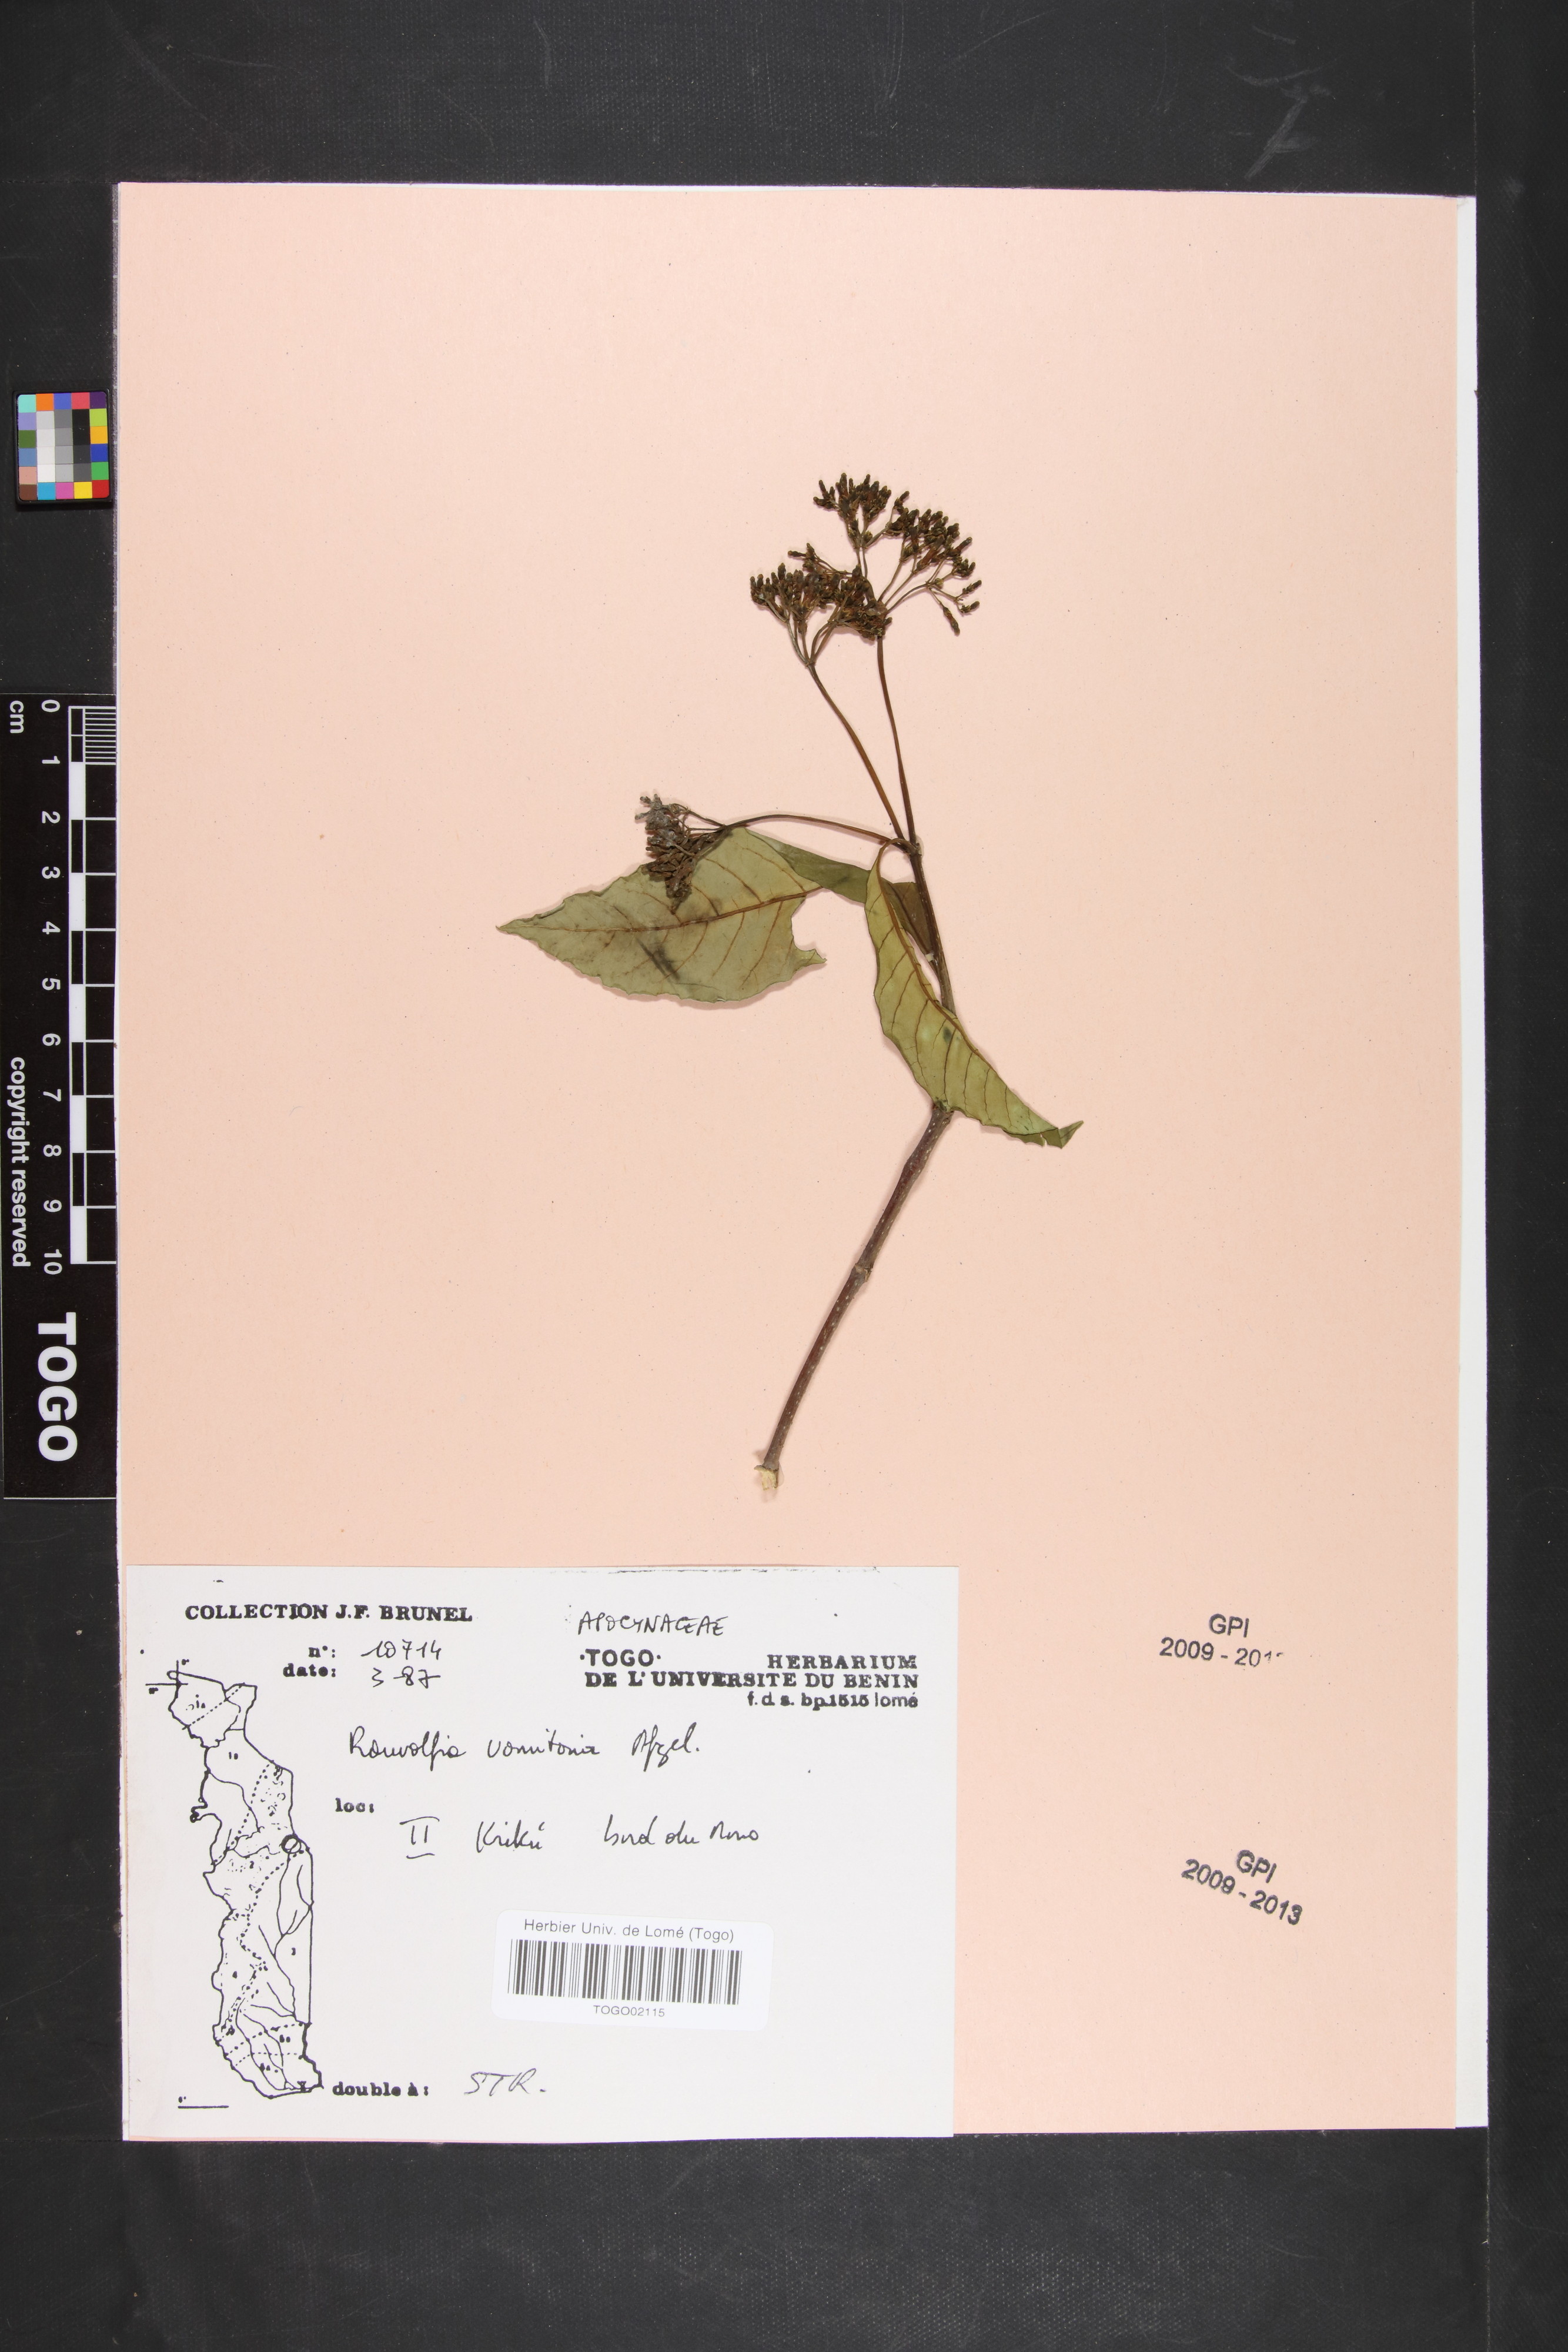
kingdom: Plantae
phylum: Tracheophyta
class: Magnoliopsida
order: Gentianales
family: Apocynaceae
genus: Rauvolfia
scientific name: Rauvolfia vomitoria
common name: Poison devil's-pepper
